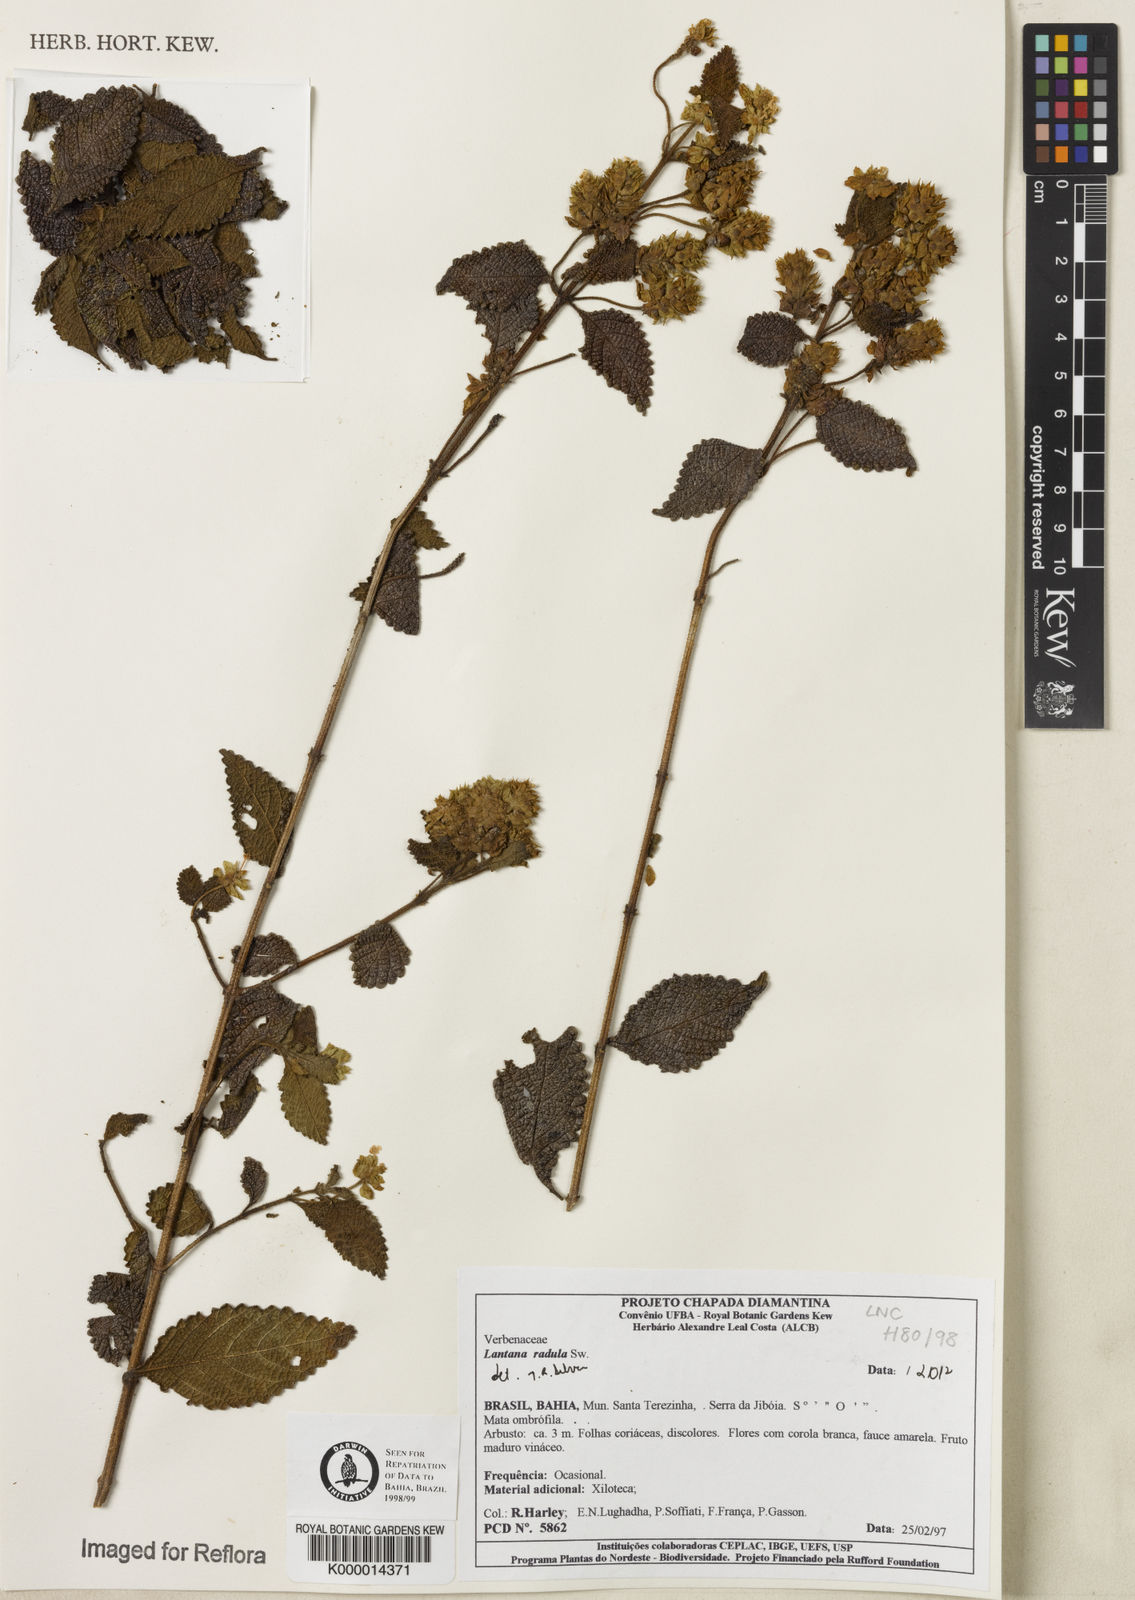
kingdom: Plantae
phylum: Tracheophyta
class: Magnoliopsida
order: Lamiales
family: Verbenaceae
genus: Lantana
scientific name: Lantana radula
